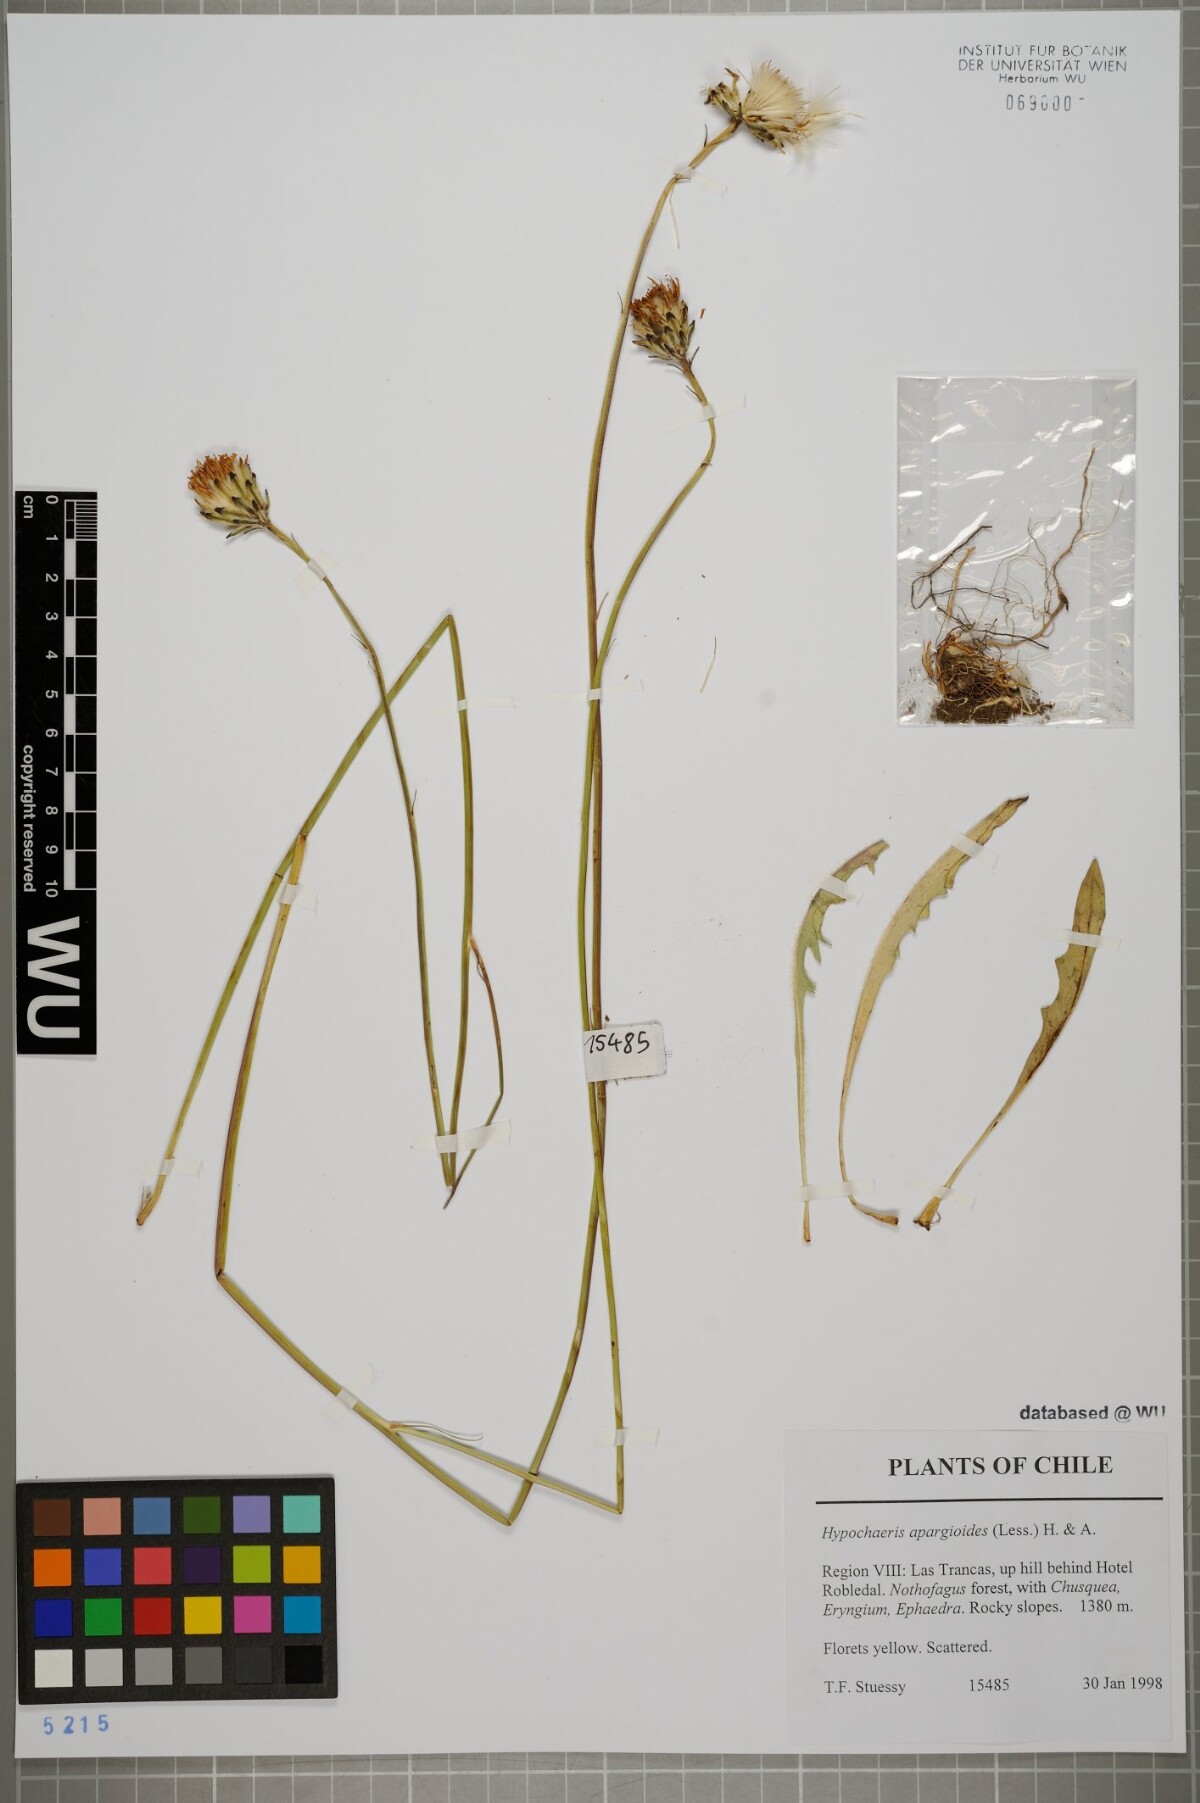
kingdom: Plantae
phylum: Tracheophyta
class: Magnoliopsida
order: Asterales
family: Asteraceae
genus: Hypochaeris
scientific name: Hypochaeris apargioides
